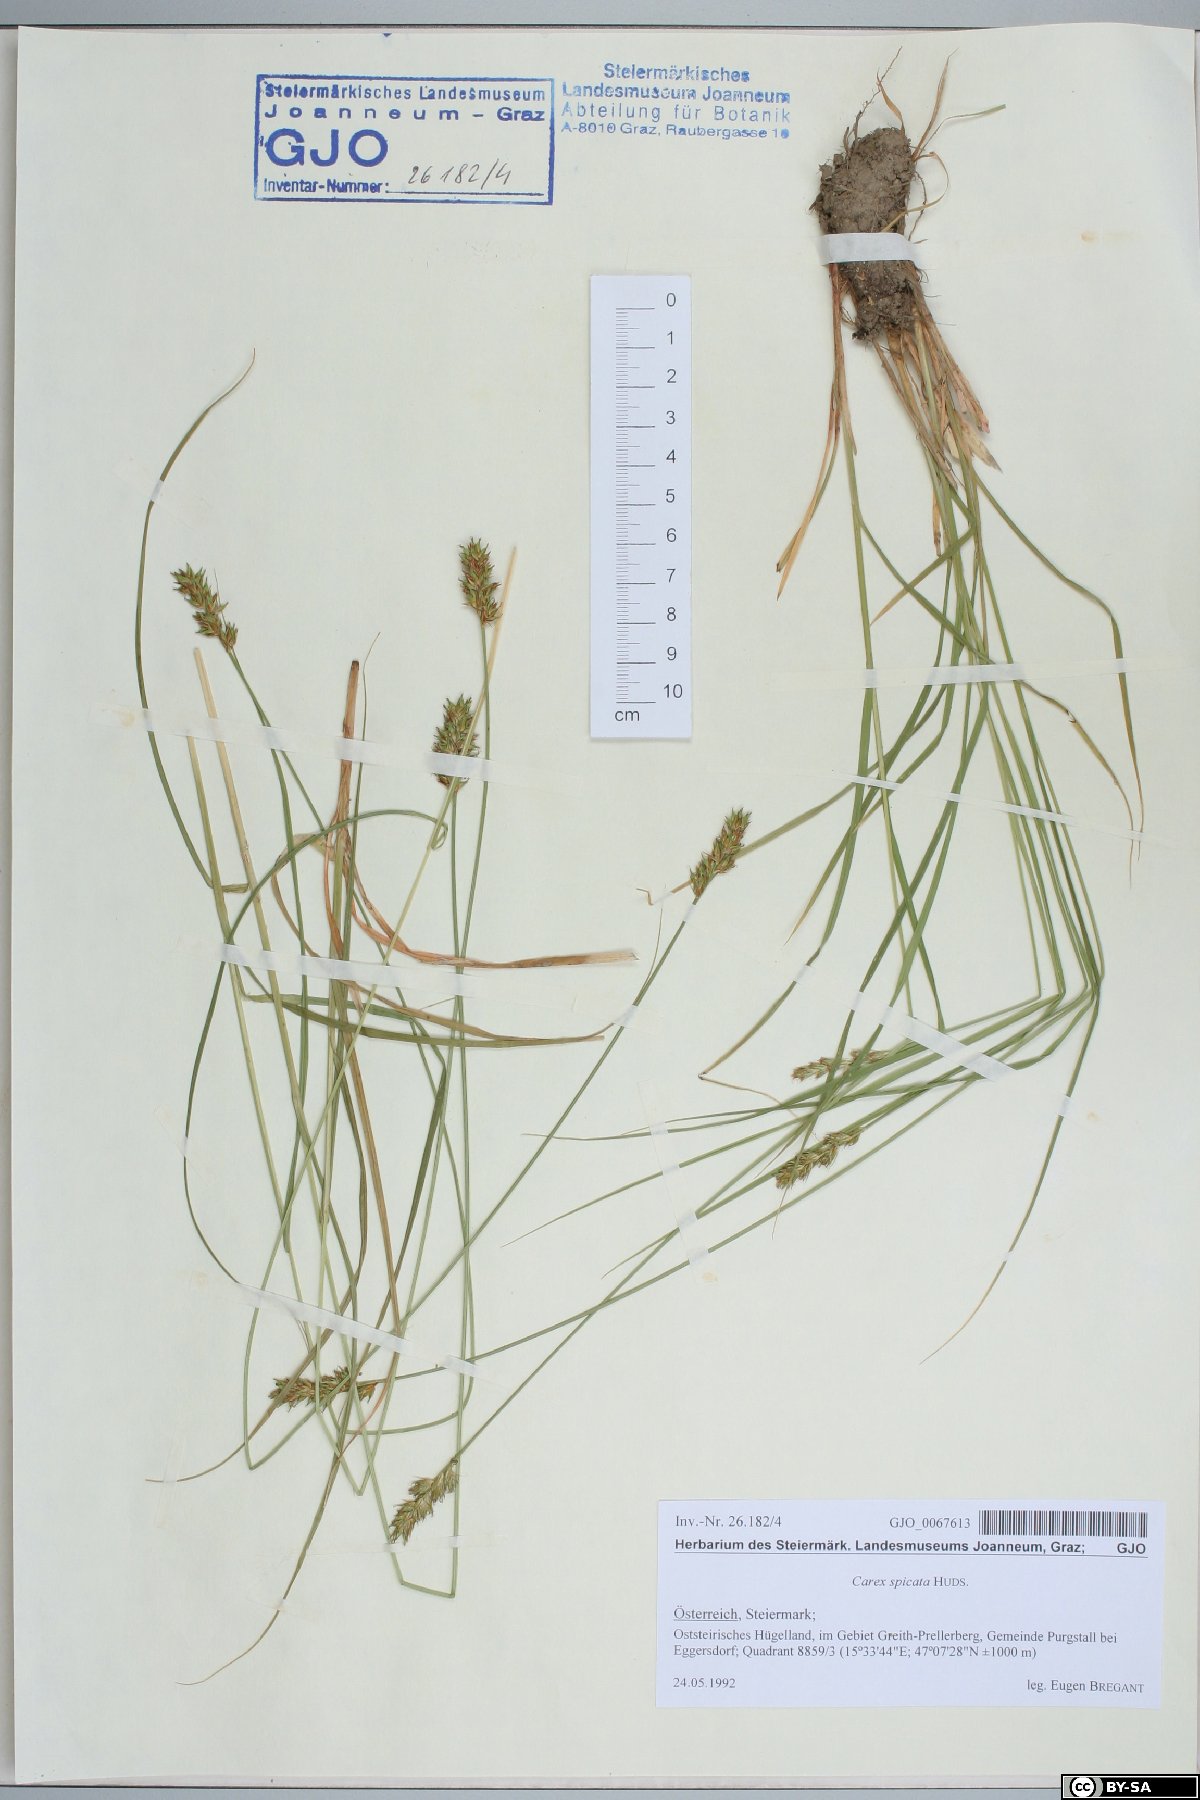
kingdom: Plantae
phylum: Tracheophyta
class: Liliopsida
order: Poales
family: Cyperaceae
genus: Carex
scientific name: Carex spicata
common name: Spiked sedge
